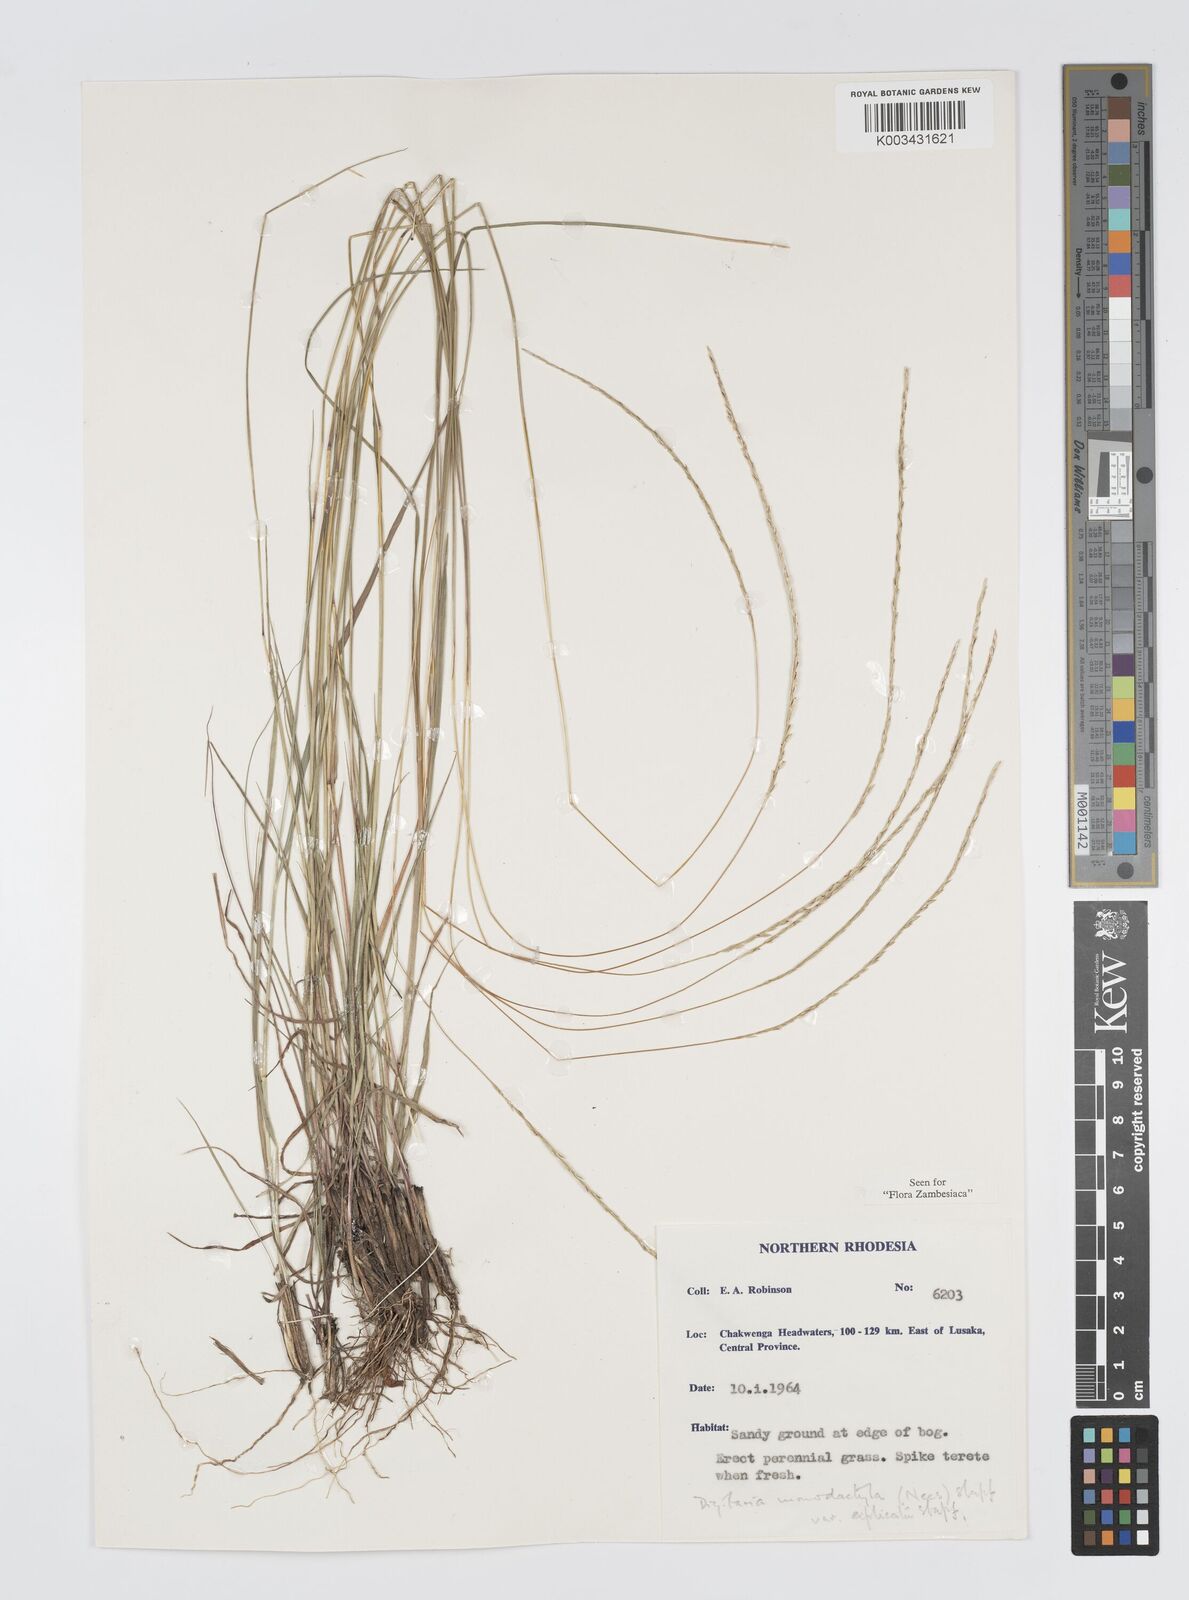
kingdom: Plantae
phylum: Tracheophyta
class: Liliopsida
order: Poales
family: Poaceae
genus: Digitaria
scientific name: Digitaria monodactyla
